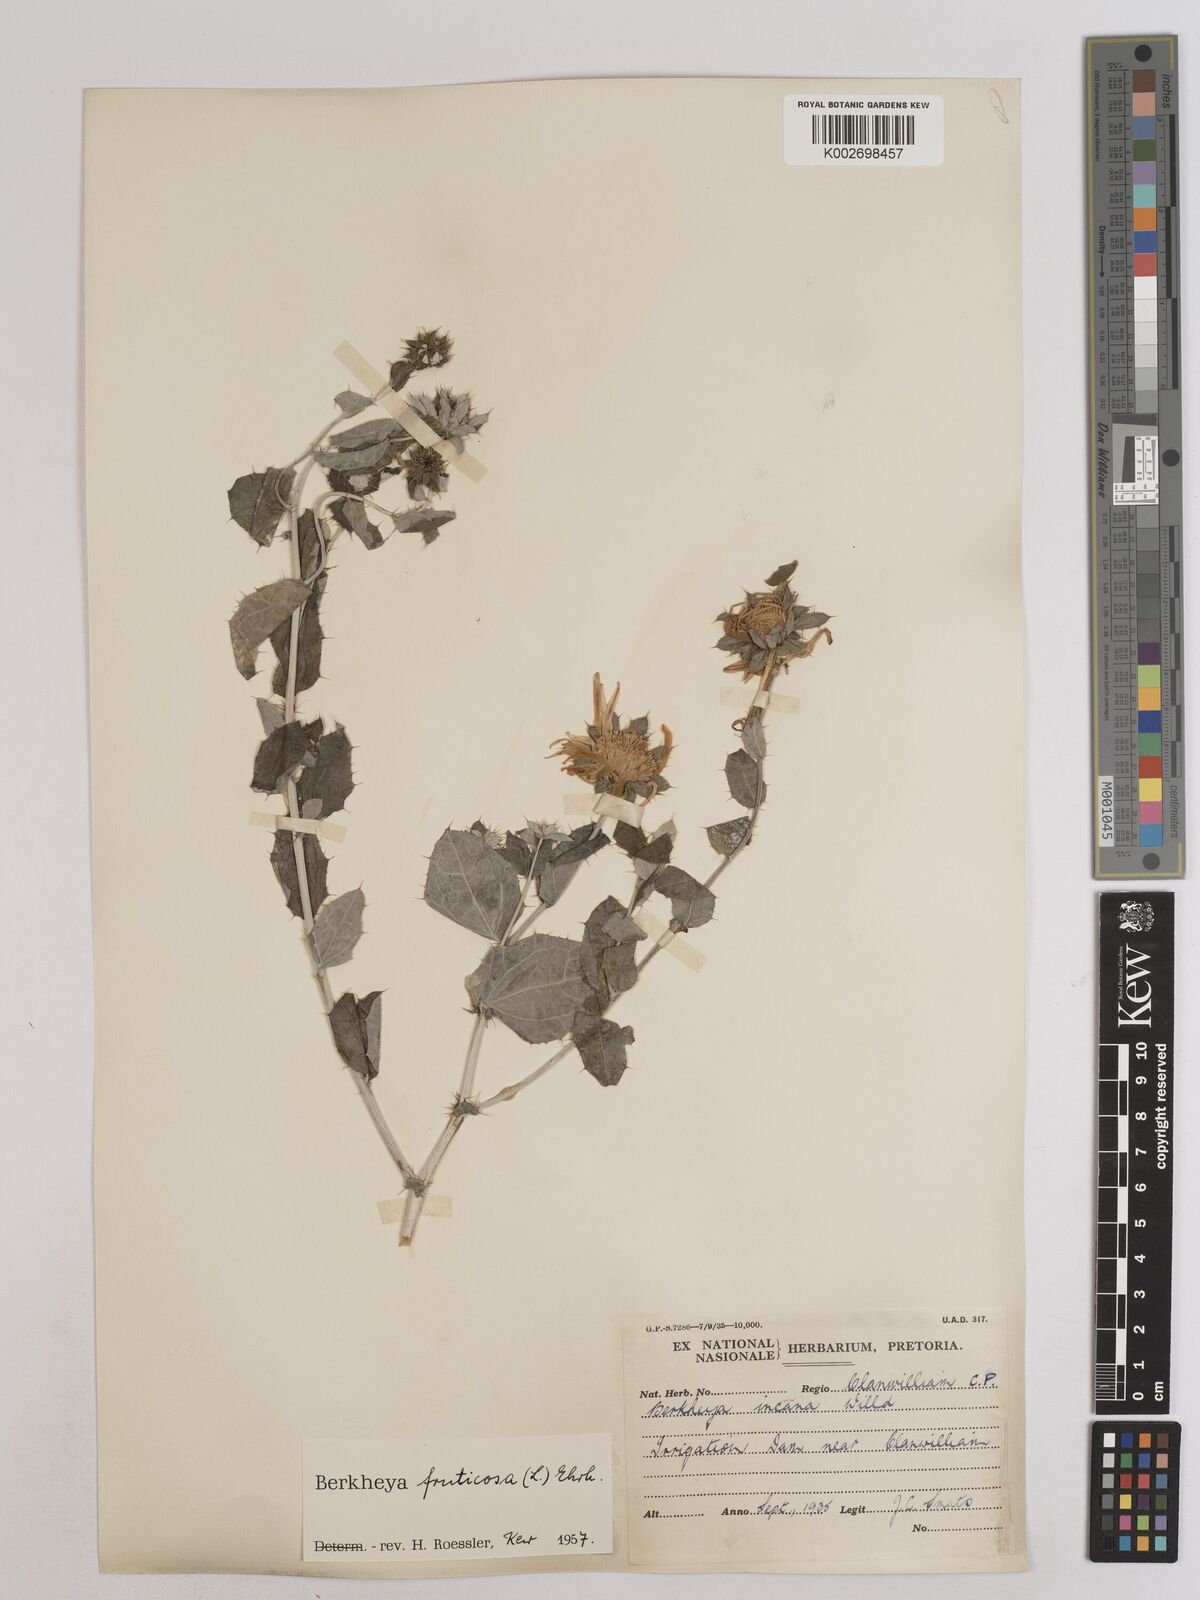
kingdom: Plantae
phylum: Tracheophyta
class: Magnoliopsida
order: Asterales
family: Asteraceae
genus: Berkheya
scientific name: Berkheya fruticosa
